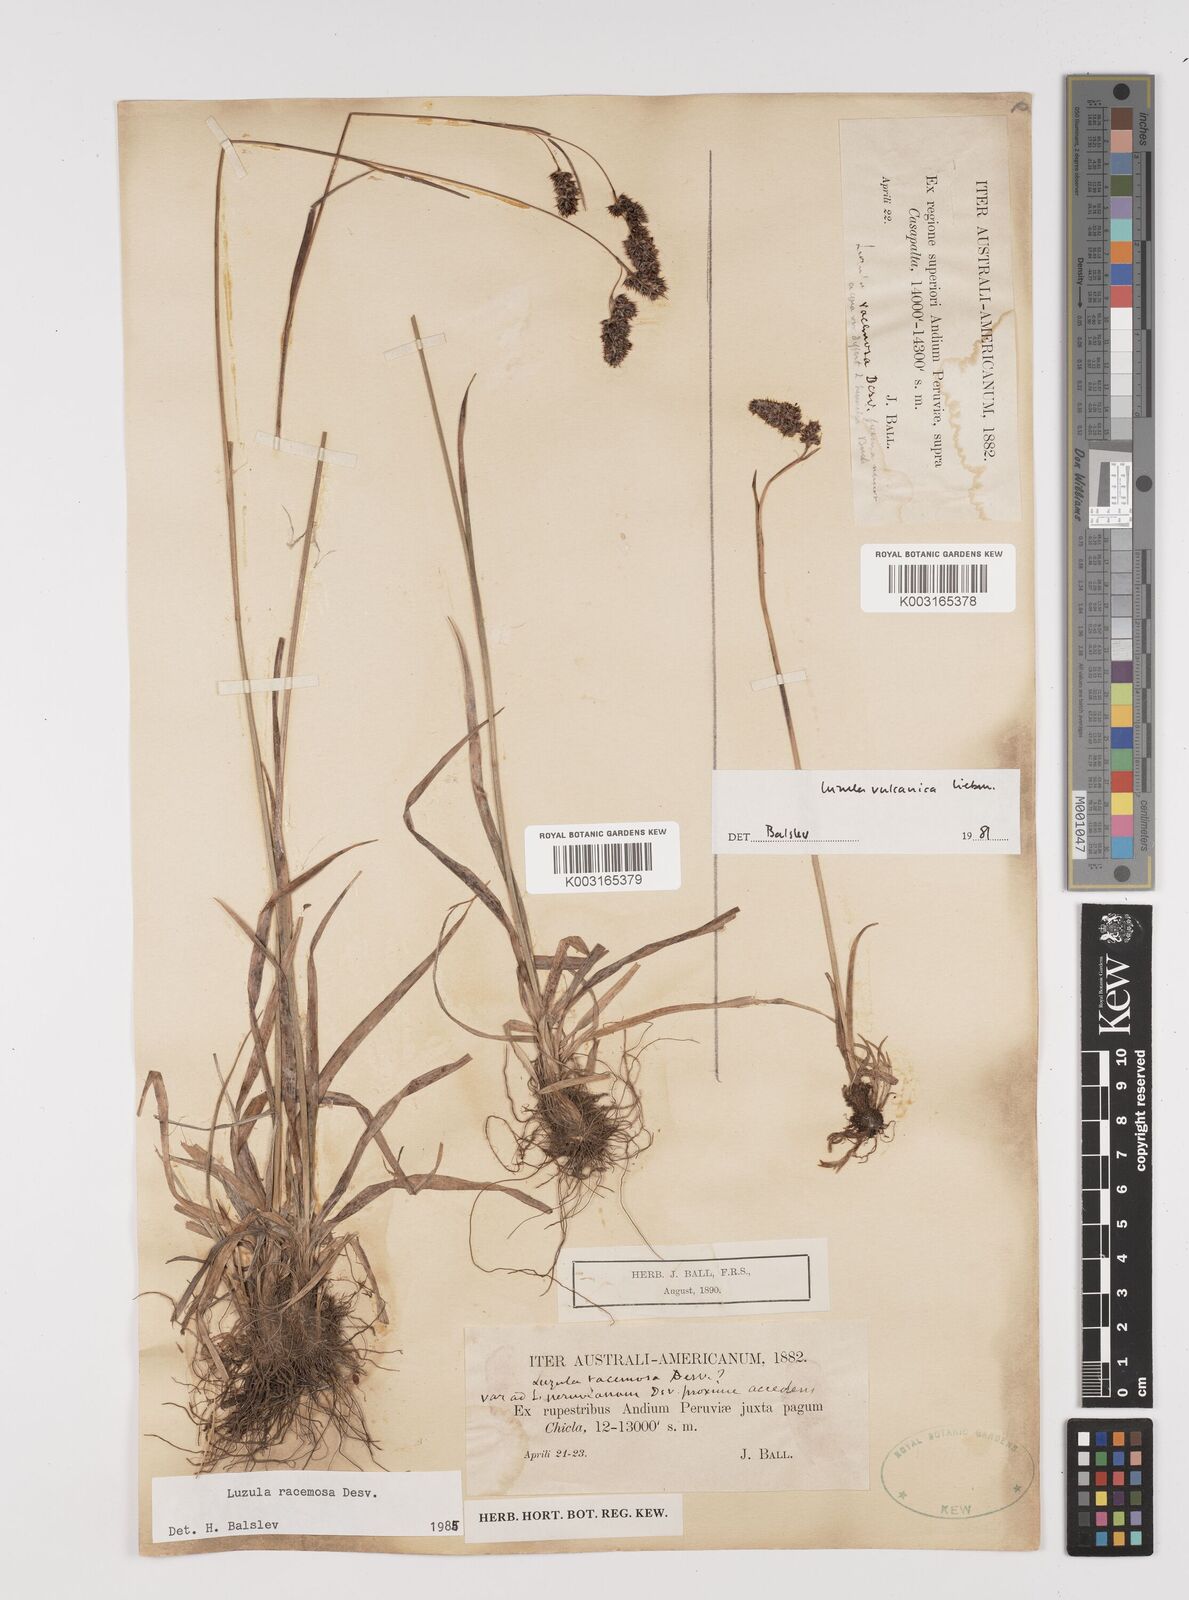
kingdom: Plantae
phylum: Tracheophyta
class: Liliopsida
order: Poales
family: Juncaceae
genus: Luzula
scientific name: Luzula vulcanica
